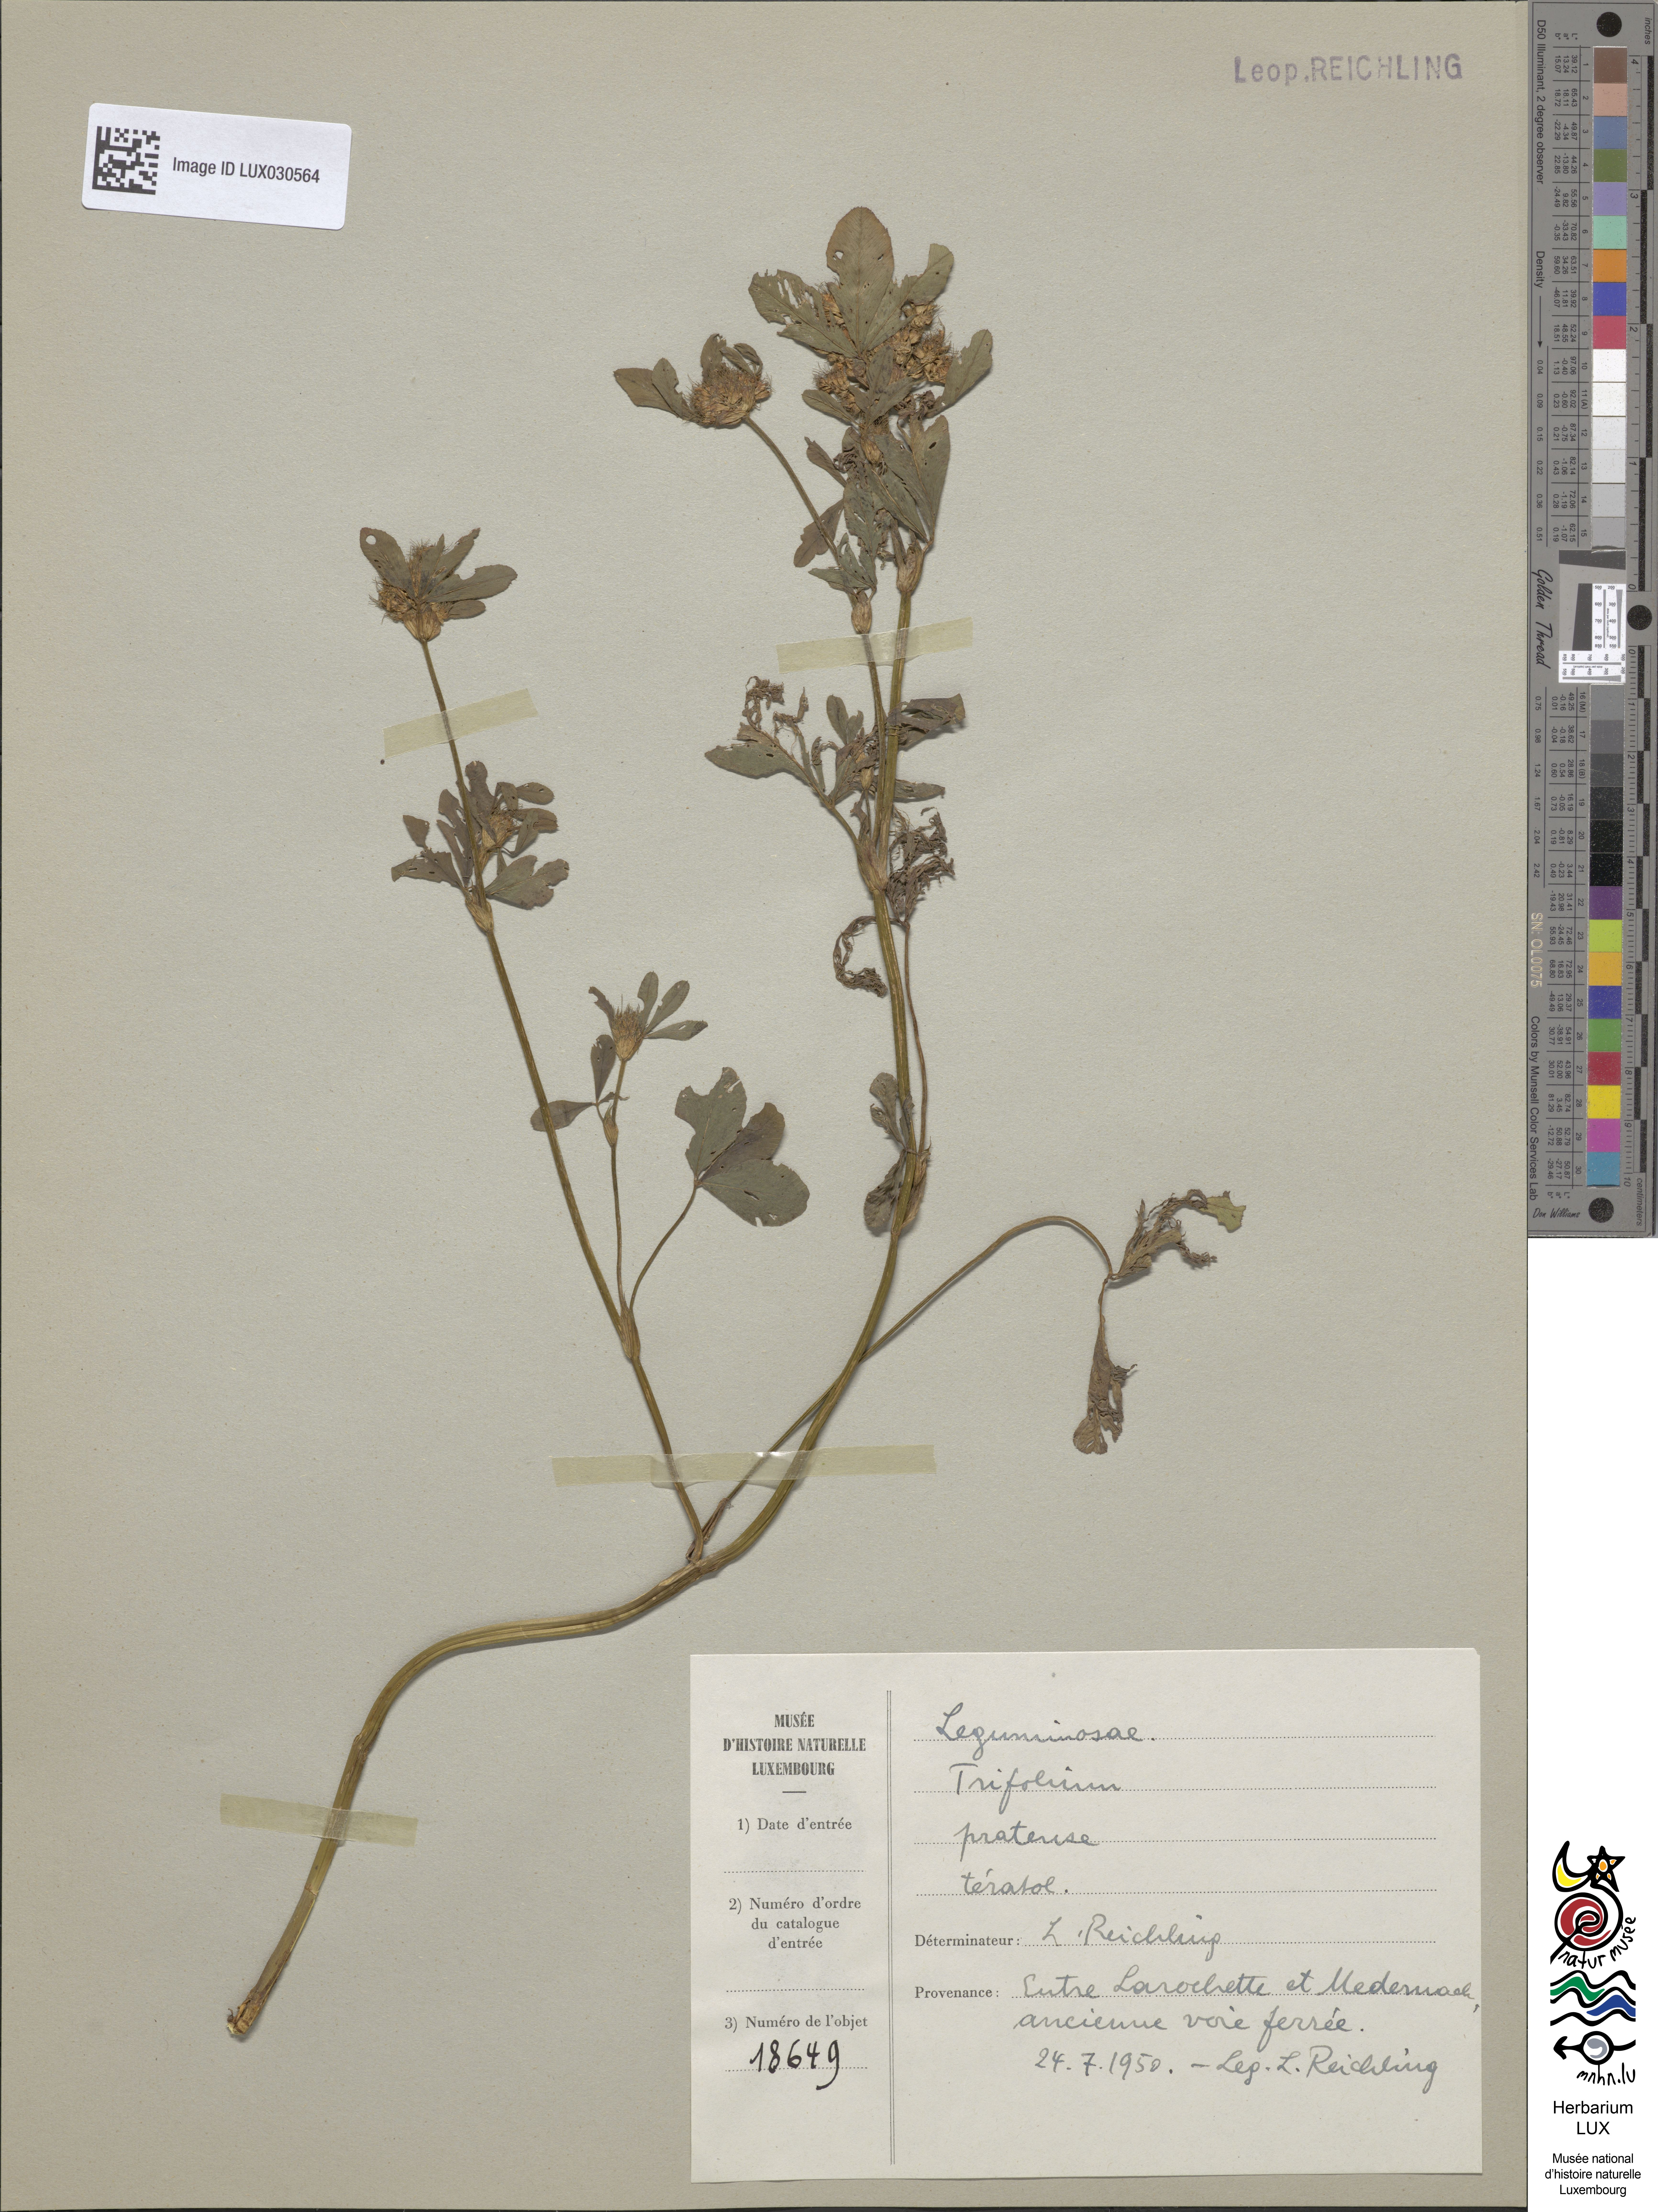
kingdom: Plantae
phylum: Tracheophyta
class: Magnoliopsida
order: Fabales
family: Fabaceae
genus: Trifolium
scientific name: Trifolium pratense
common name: Red clover
